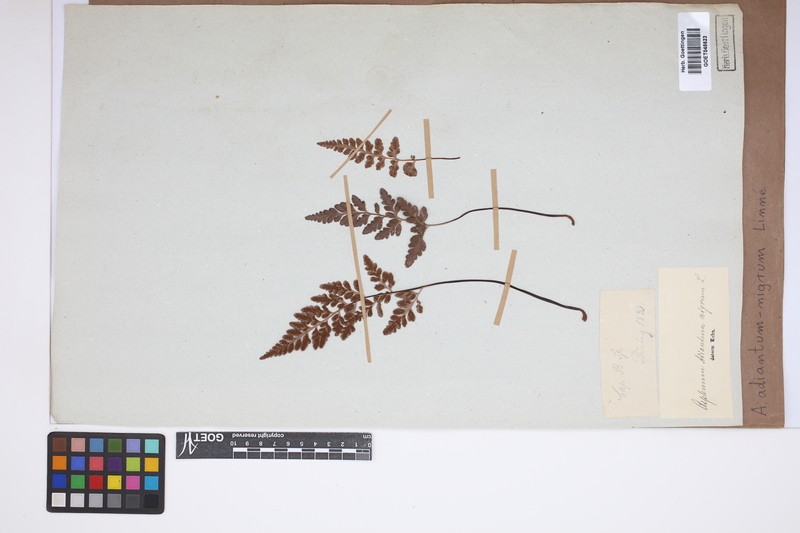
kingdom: Plantae
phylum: Tracheophyta
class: Polypodiopsida
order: Polypodiales
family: Aspleniaceae
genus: Asplenium
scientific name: Asplenium adiantum-nigrum
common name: Black spleenwort
